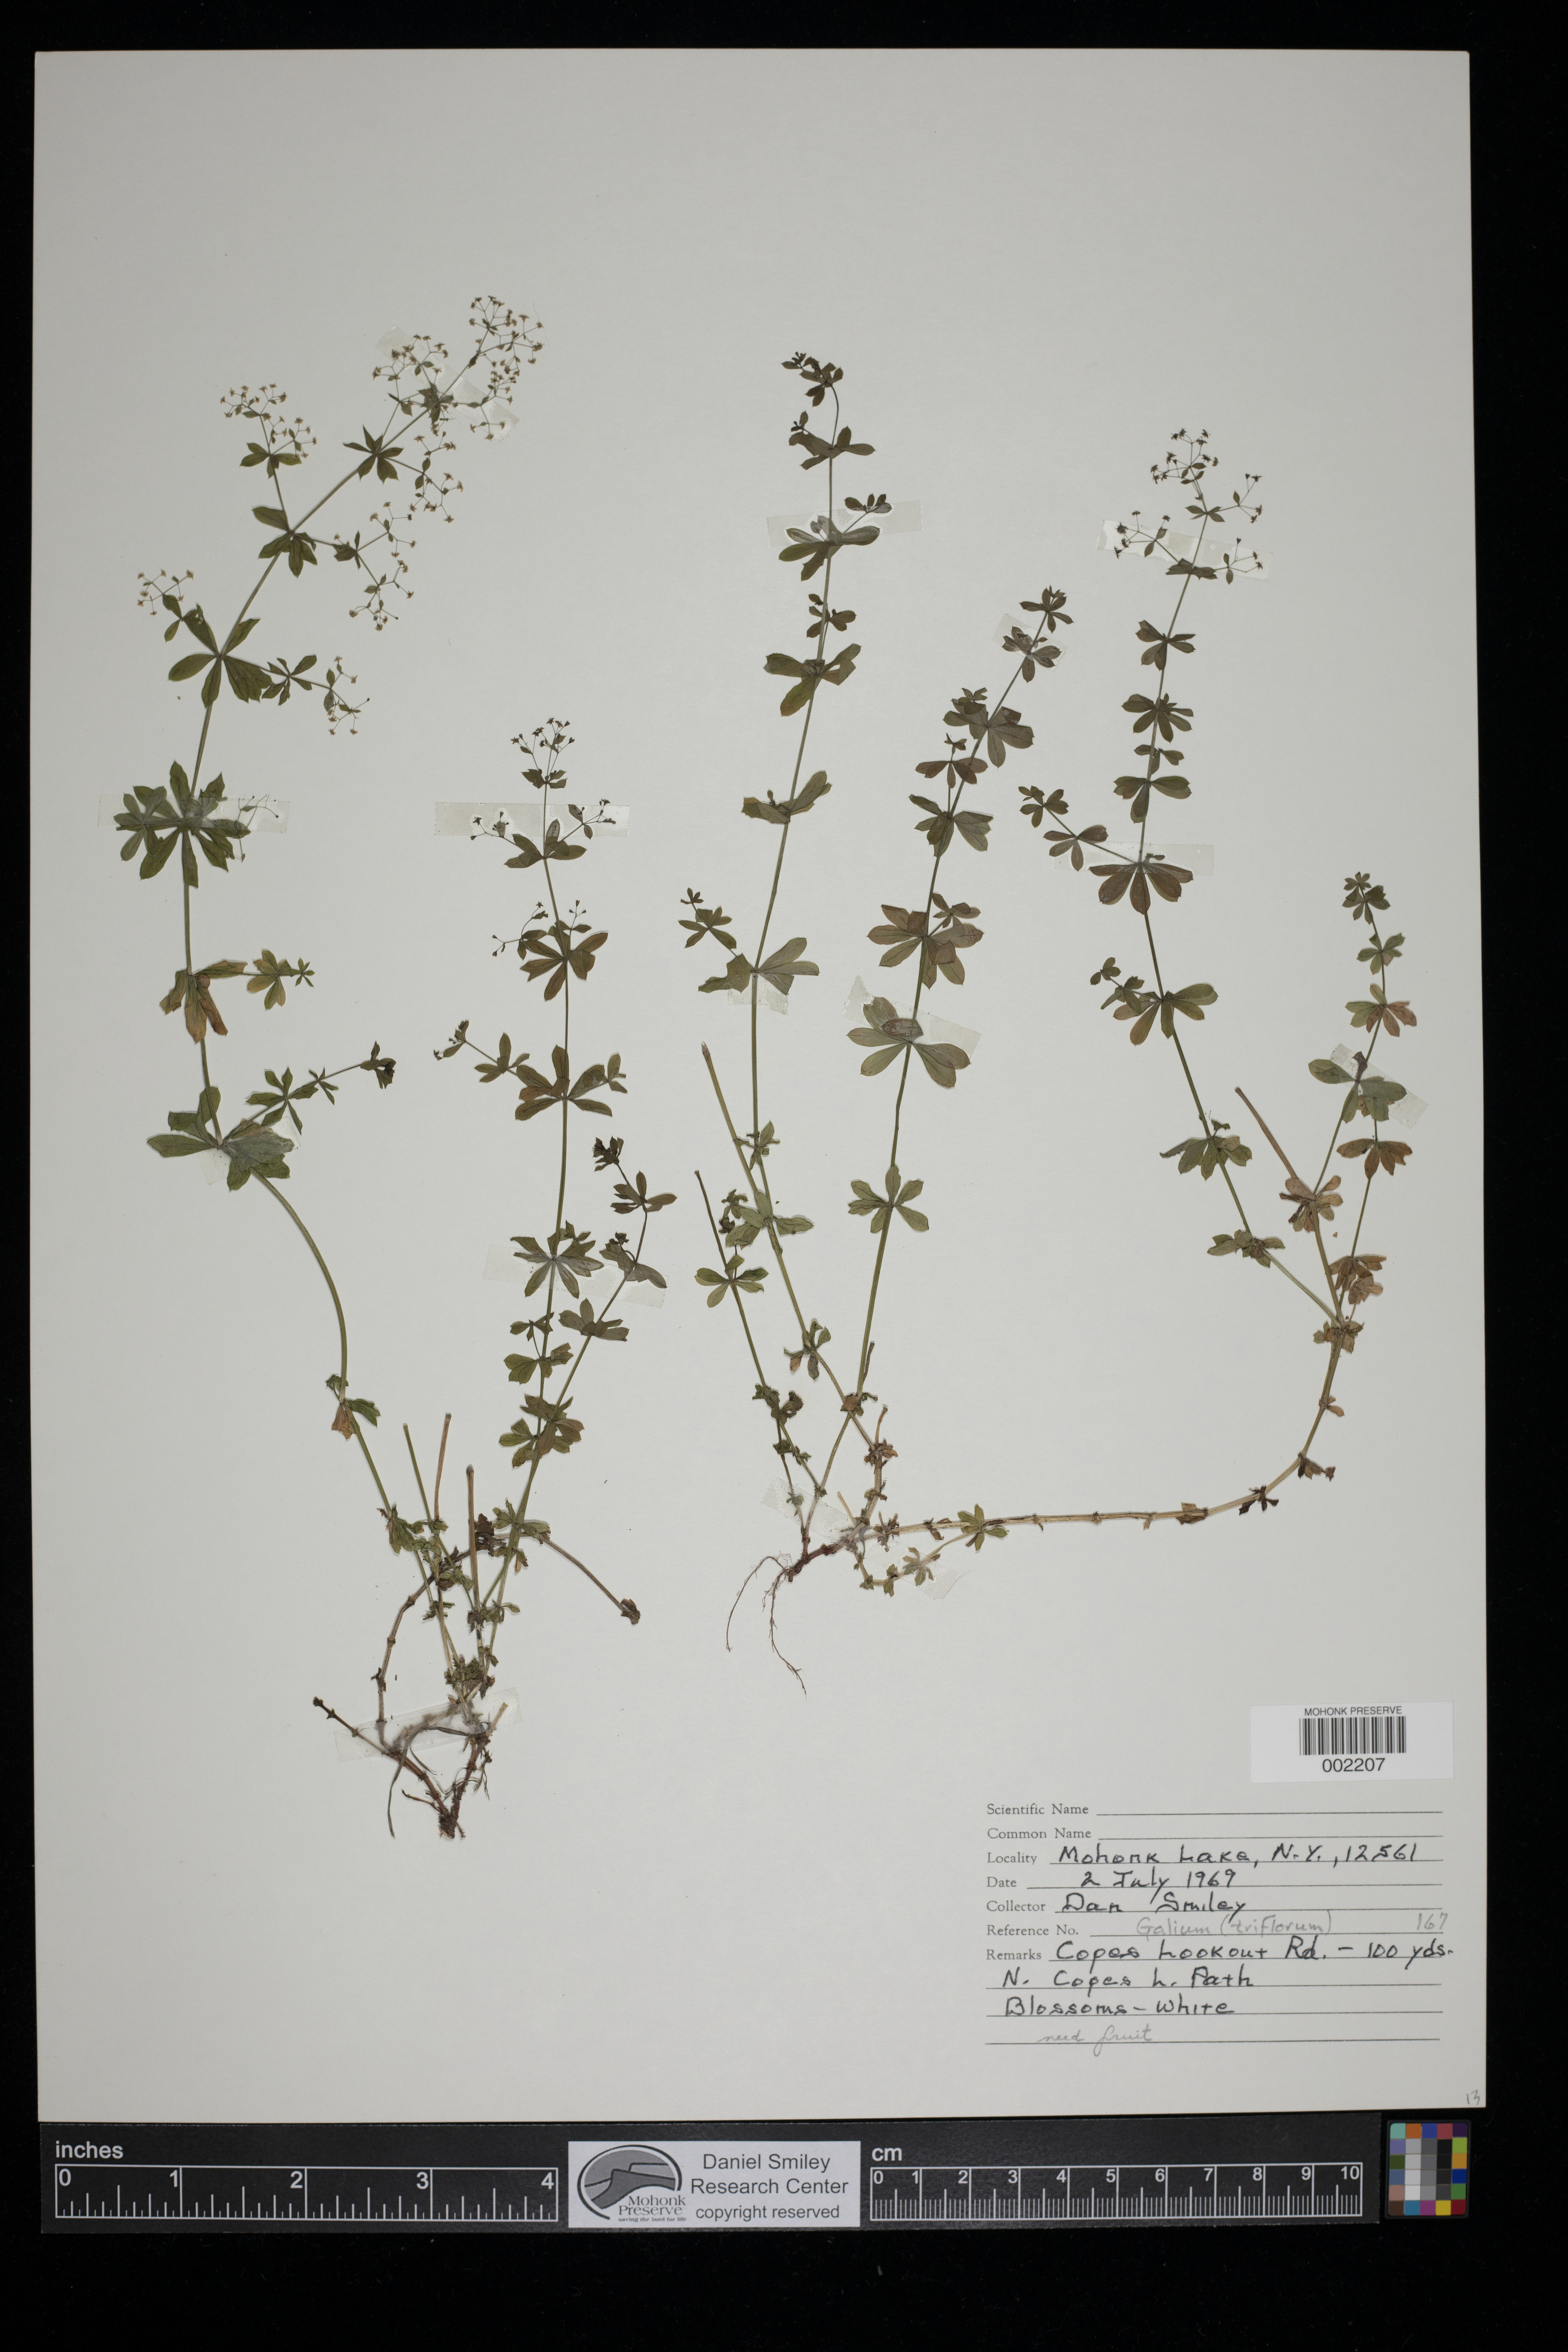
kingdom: Plantae
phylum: Tracheophyta
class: Magnoliopsida
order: Gentianales
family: Rubiaceae
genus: Galium
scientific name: Galium triflorum
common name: Fragrant bedstraw
